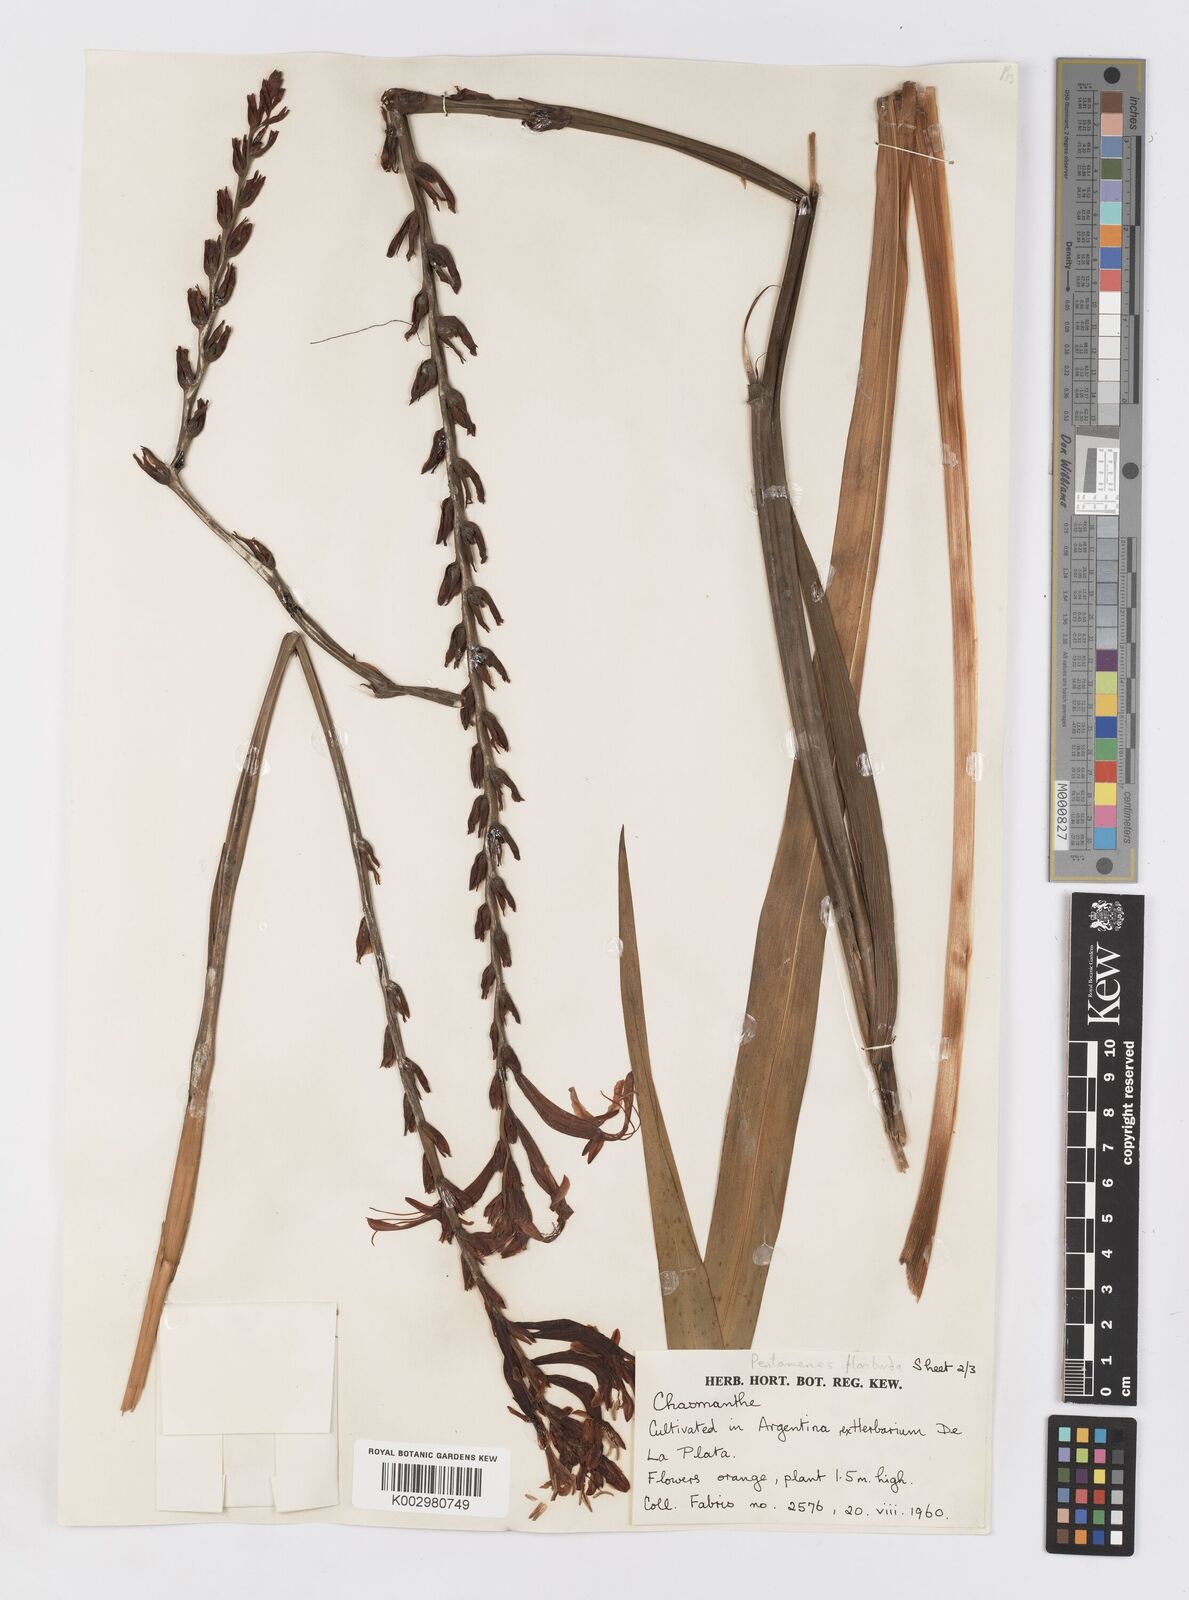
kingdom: Plantae
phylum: Tracheophyta
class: Liliopsida
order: Asparagales
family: Iridaceae
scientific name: Iridaceae
